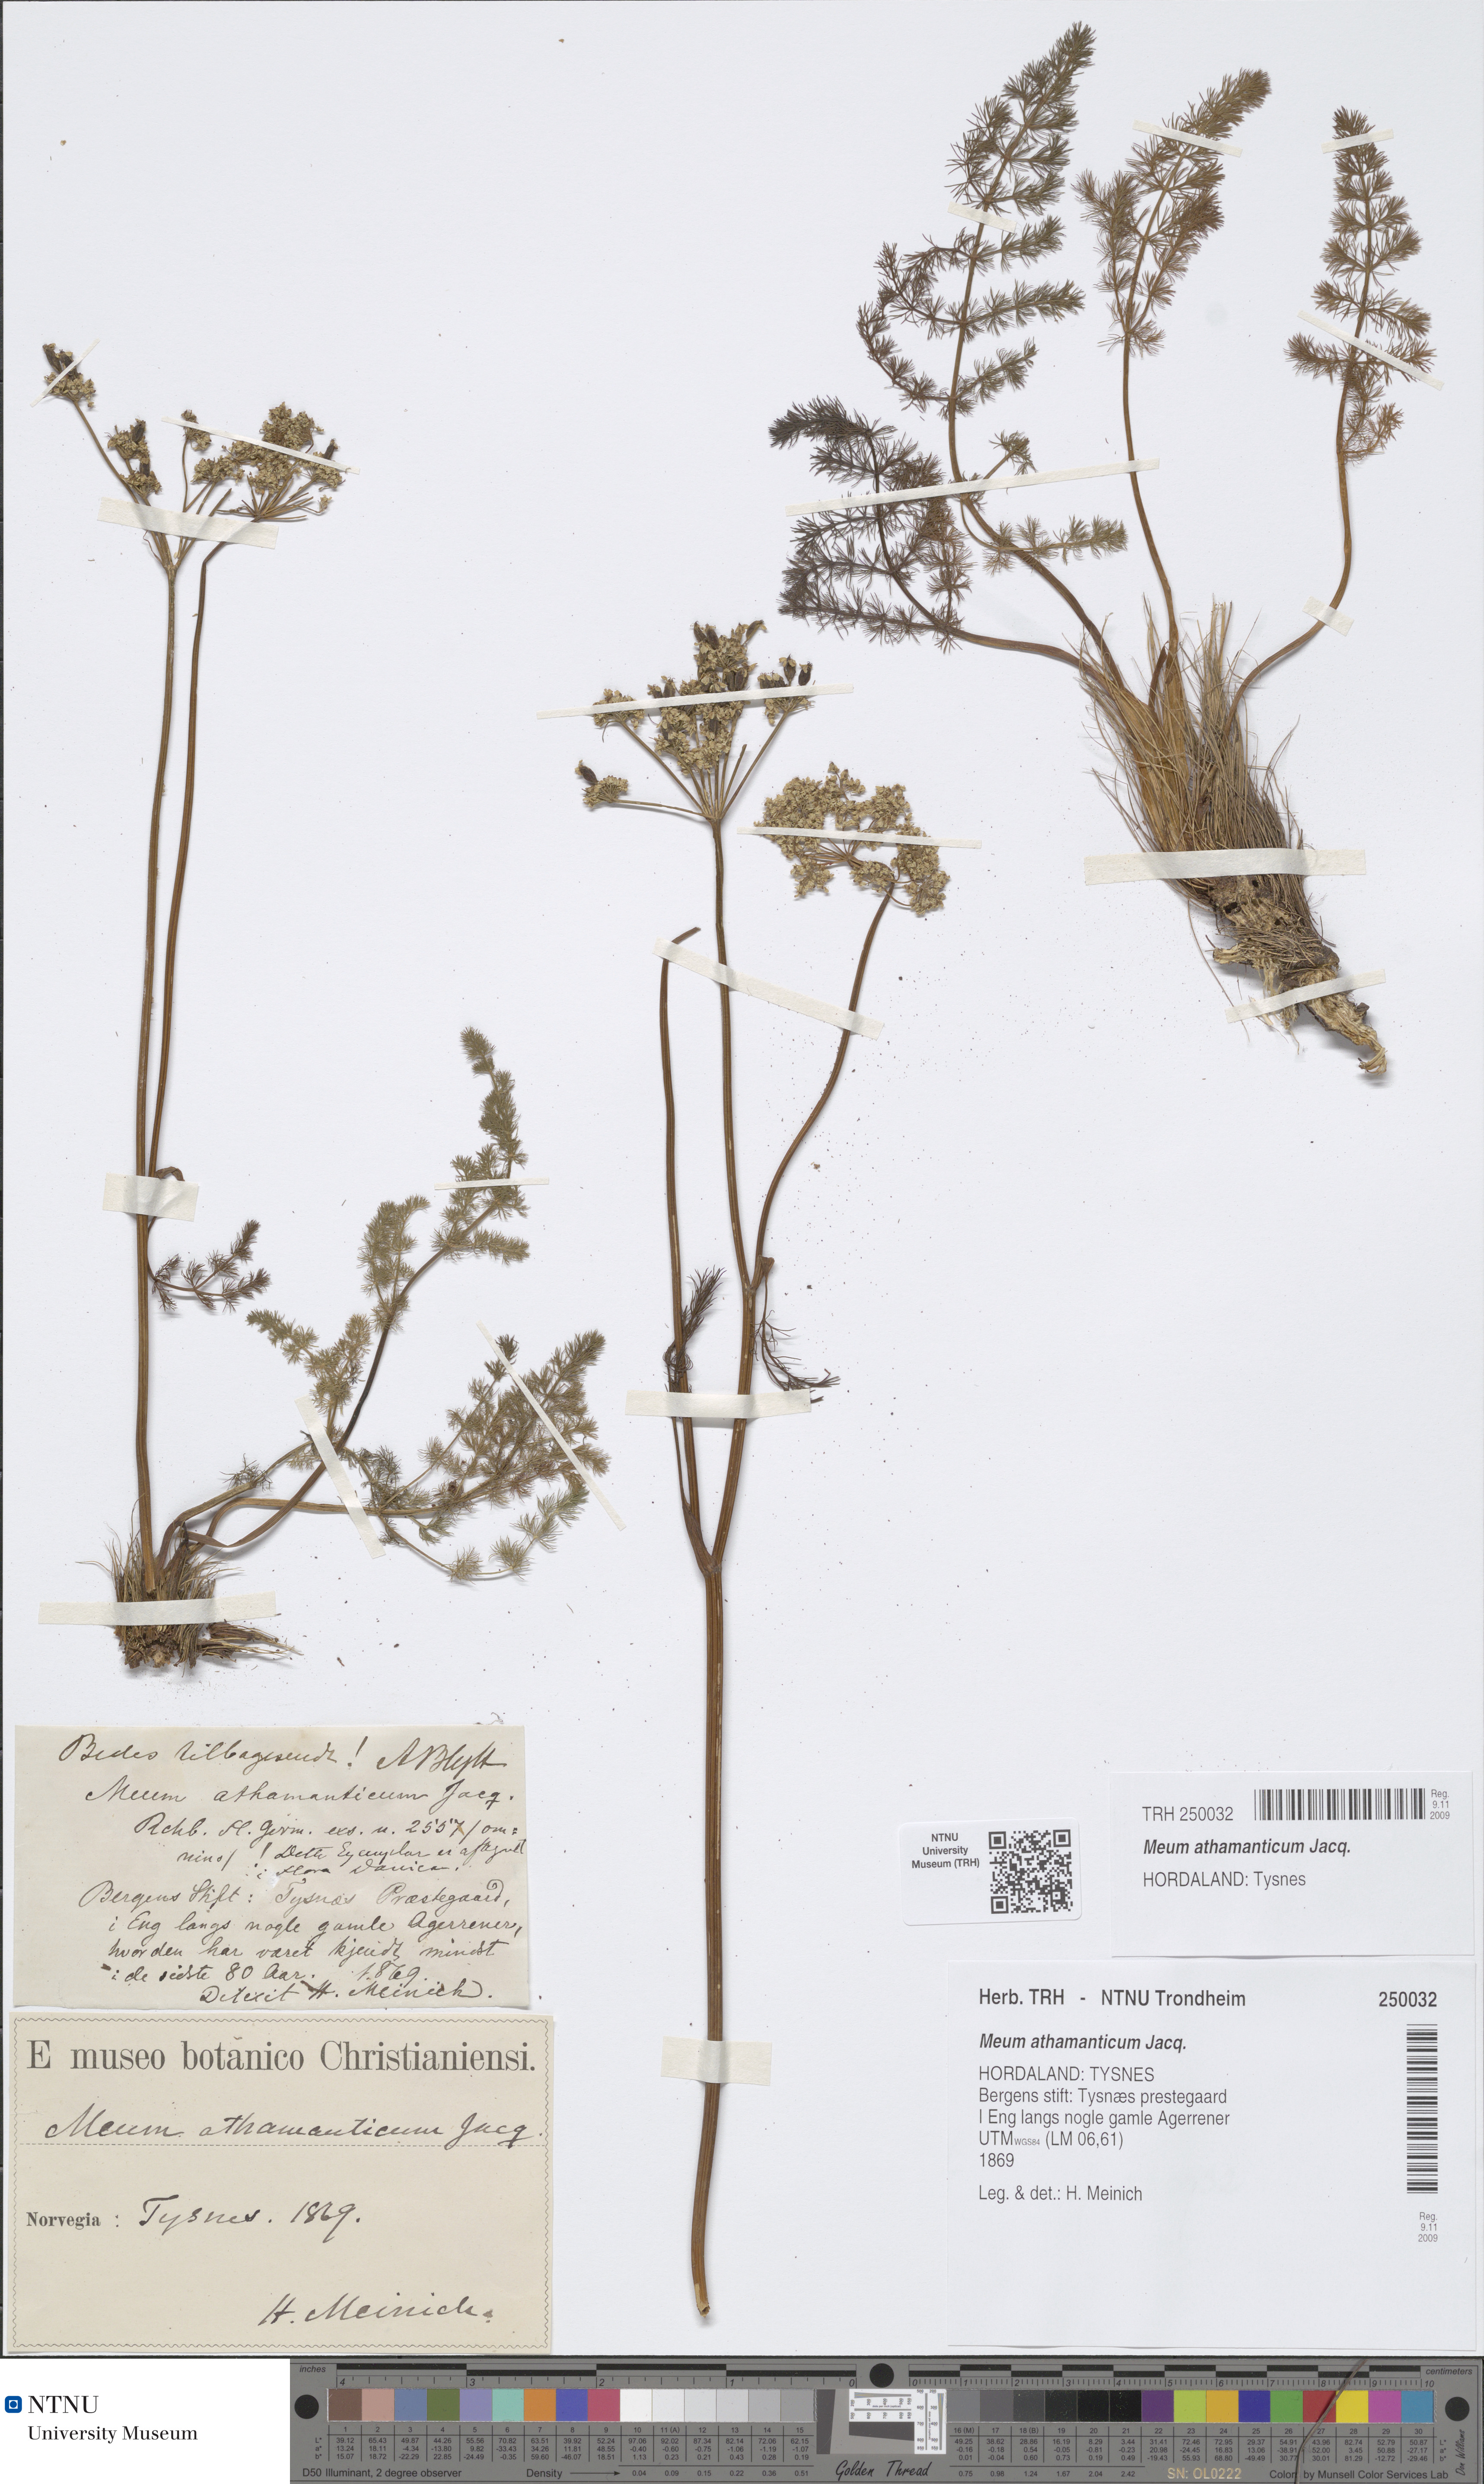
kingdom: Plantae
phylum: Tracheophyta
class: Magnoliopsida
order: Apiales
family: Apiaceae
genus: Meum
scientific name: Meum athamanticum
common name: Spignel
